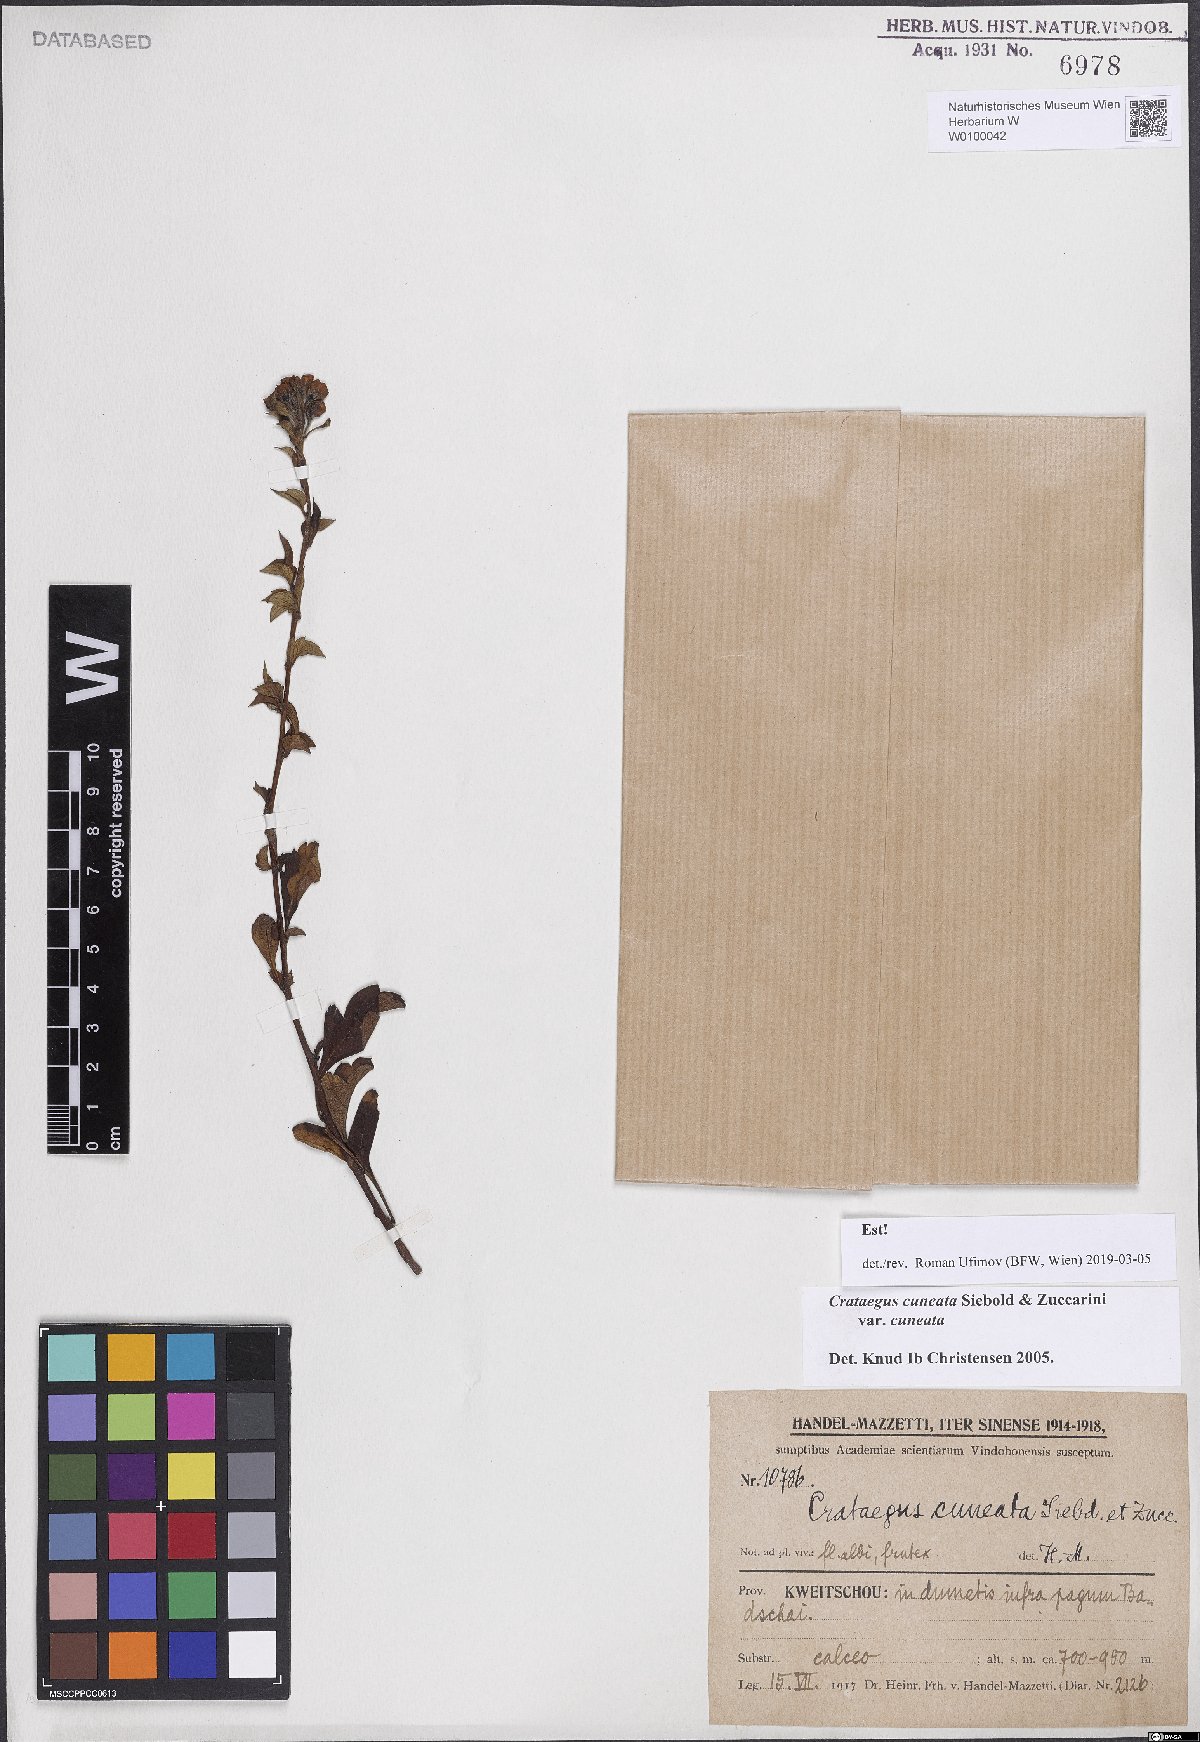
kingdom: Plantae
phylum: Tracheophyta
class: Magnoliopsida
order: Rosales
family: Rosaceae
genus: Crataegus
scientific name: Crataegus cuneata
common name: Chinese hawthorn
